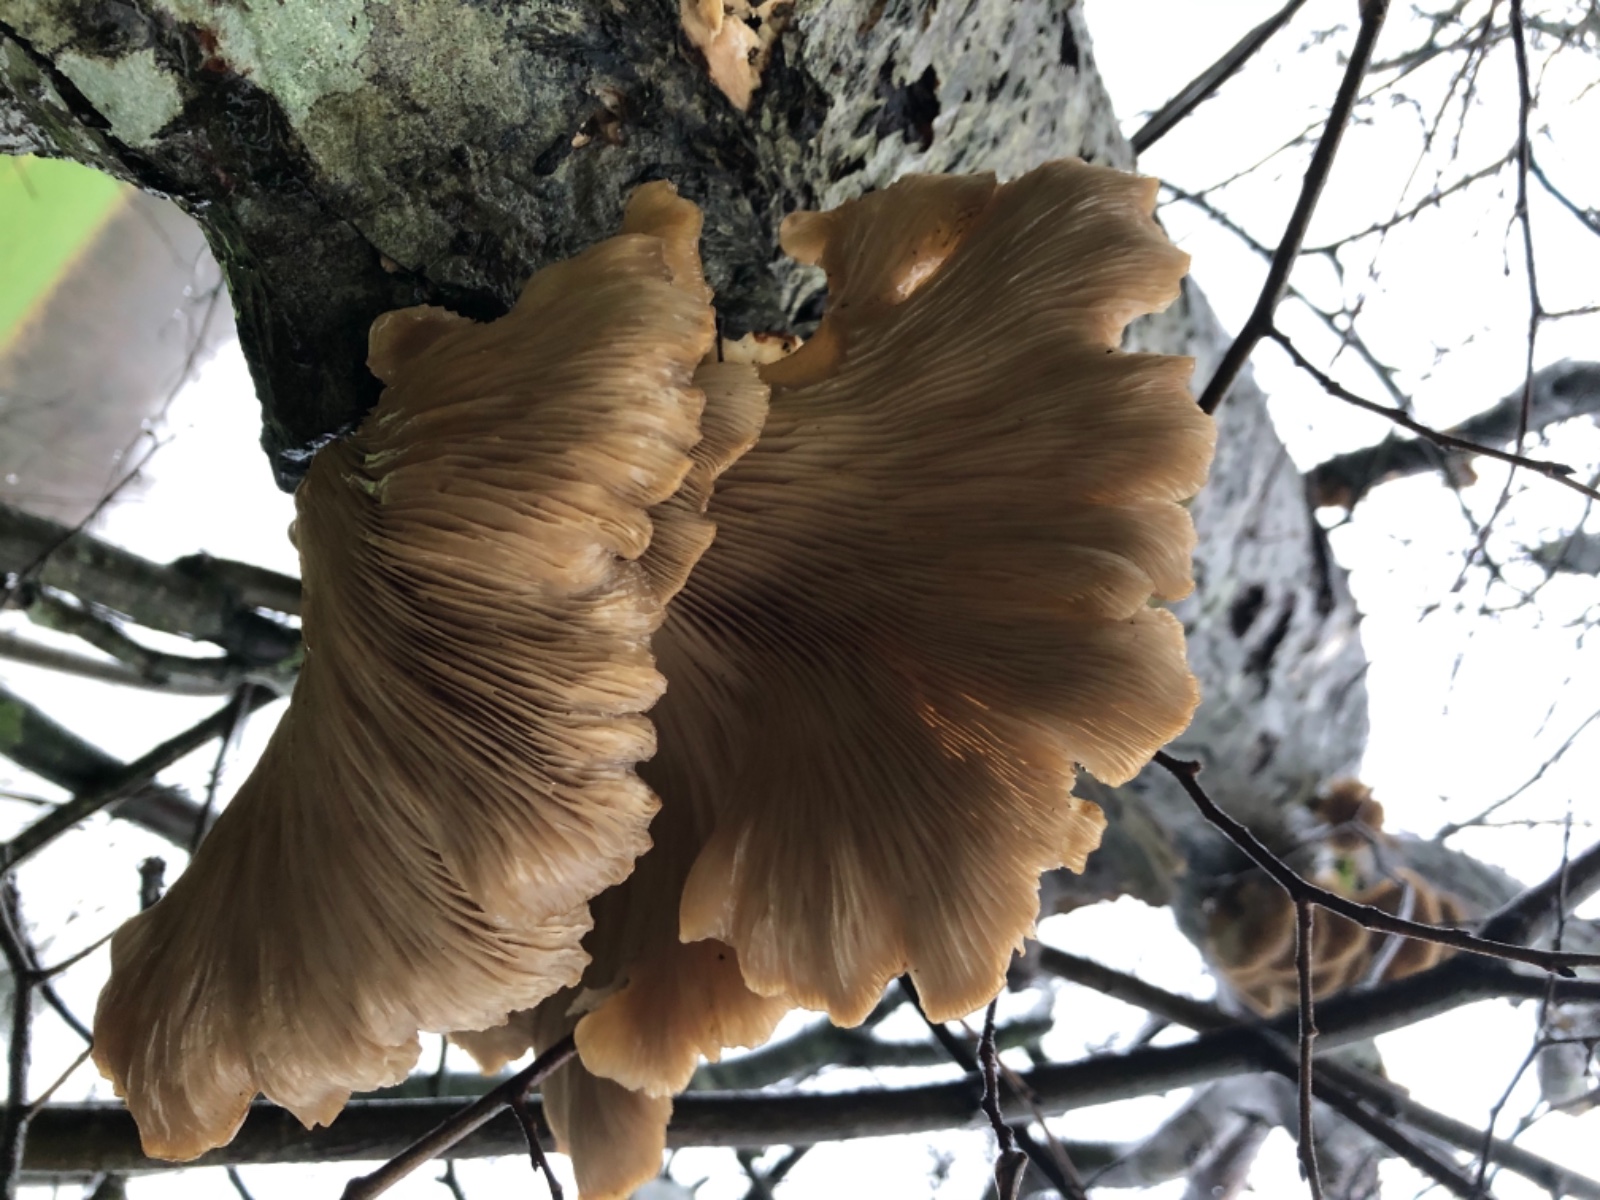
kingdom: Fungi
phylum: Basidiomycota
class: Agaricomycetes
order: Agaricales
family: Pleurotaceae
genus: Pleurotus
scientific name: Pleurotus ostreatus
